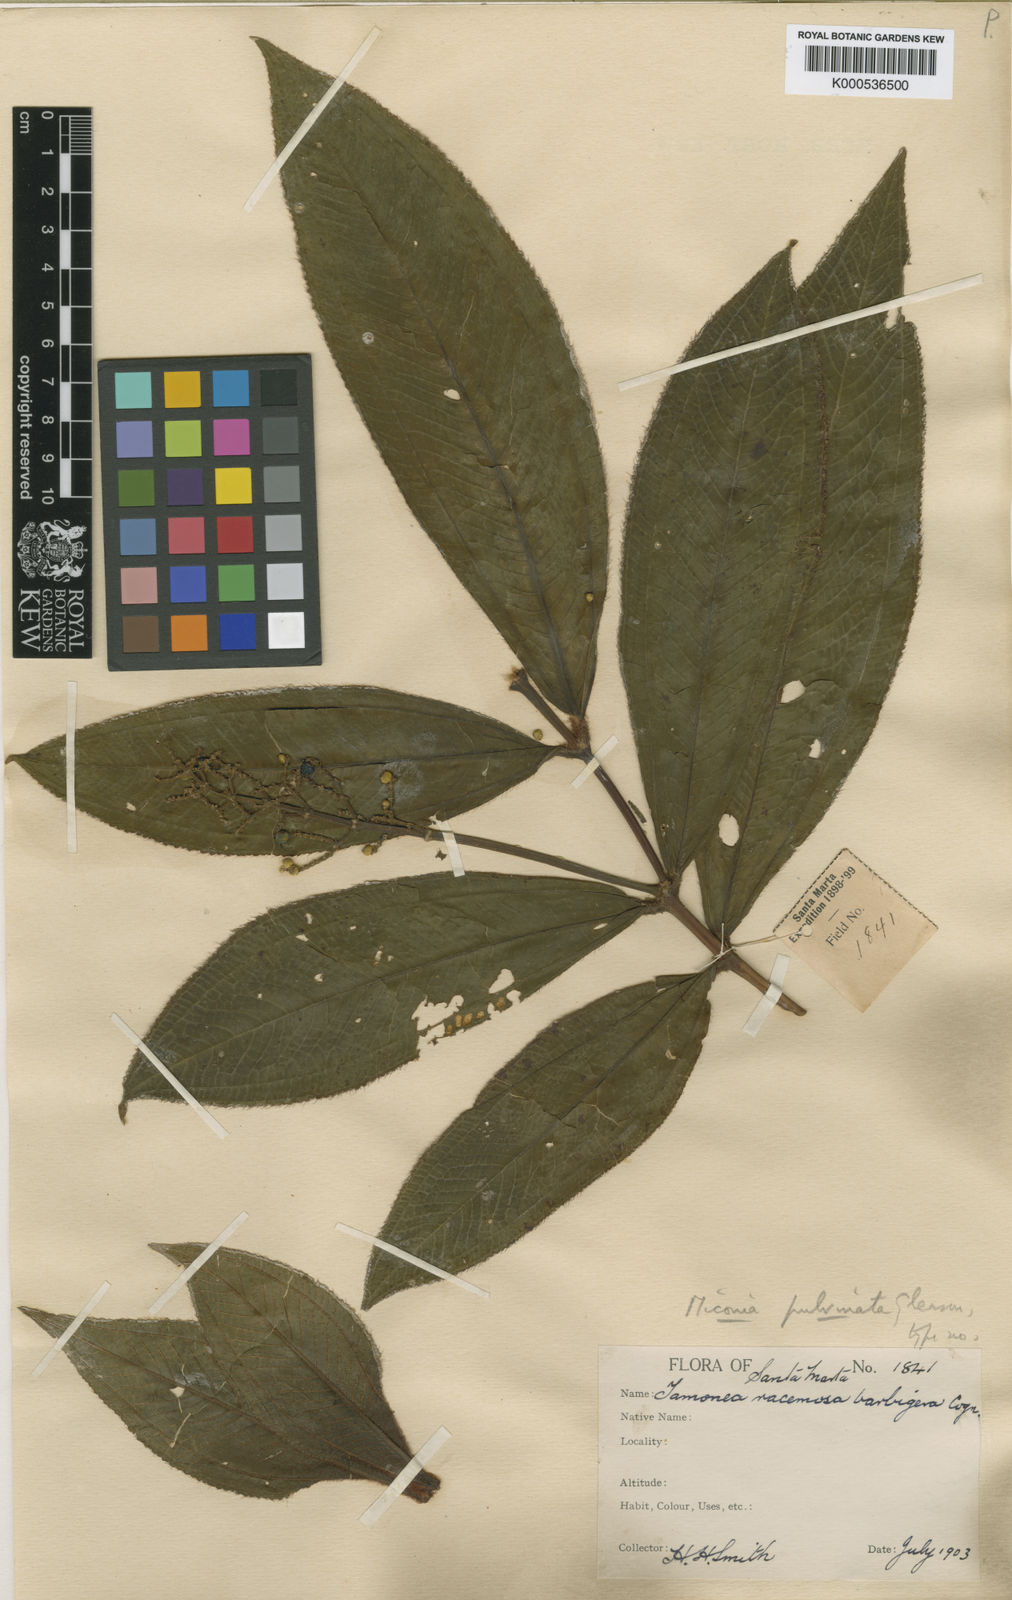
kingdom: Plantae
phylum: Tracheophyta
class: Magnoliopsida
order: Myrtales
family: Melastomataceae
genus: Miconia
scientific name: Miconia pulvinata
